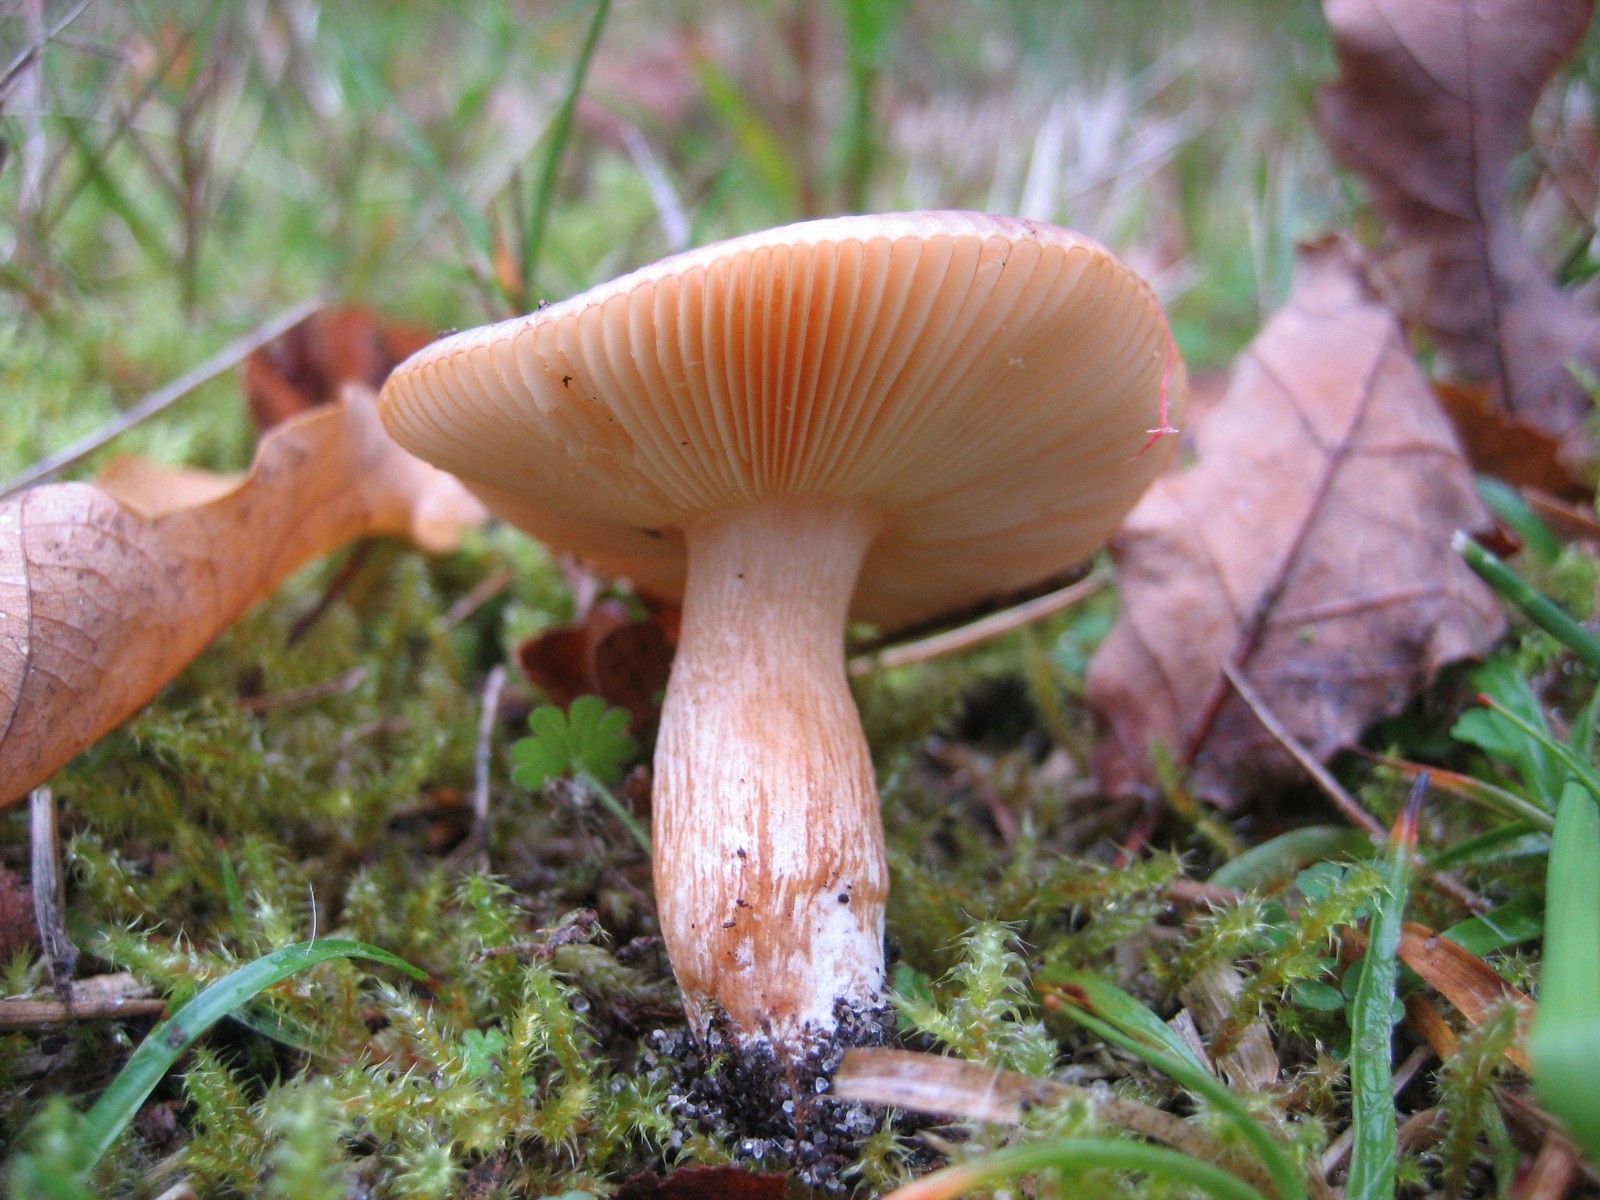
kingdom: Fungi
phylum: Basidiomycota
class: Agaricomycetes
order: Russulales
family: Russulaceae
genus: Russula
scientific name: Russula
